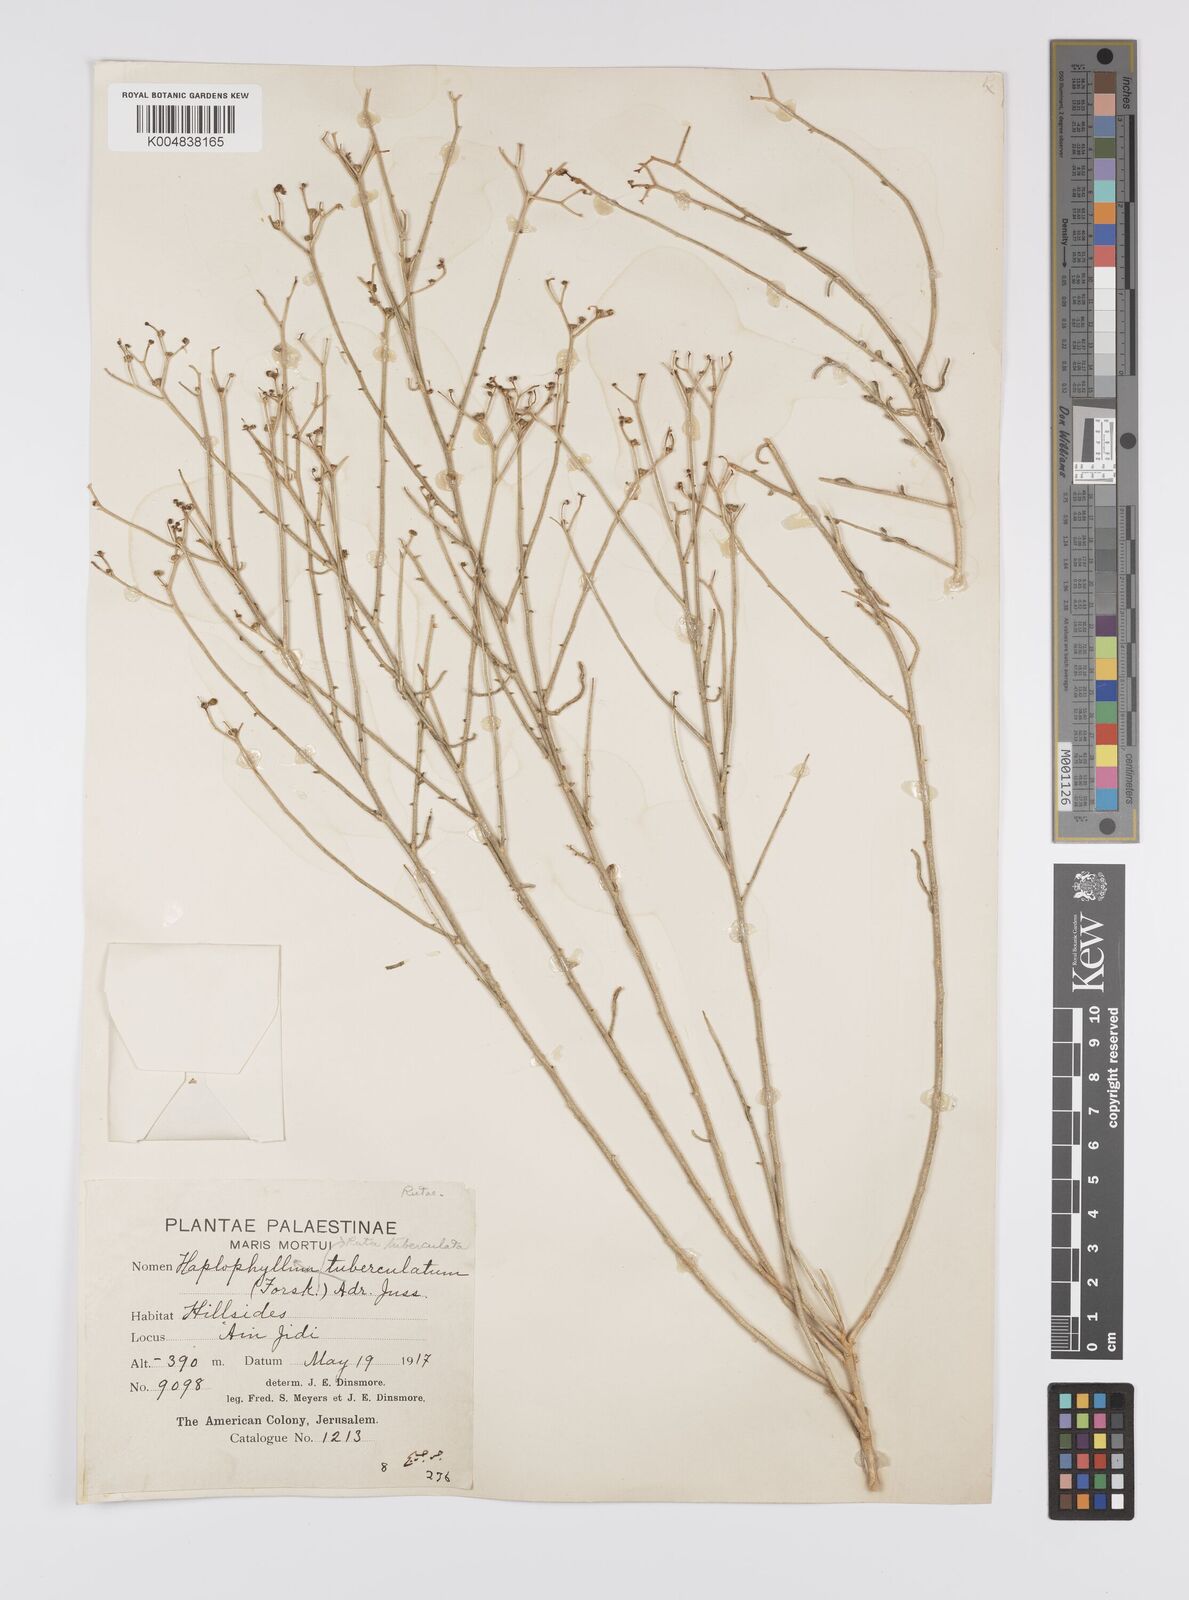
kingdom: Plantae
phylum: Tracheophyta
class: Magnoliopsida
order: Sapindales
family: Rutaceae
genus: Haplophyllum
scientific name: Haplophyllum tuberculatum
